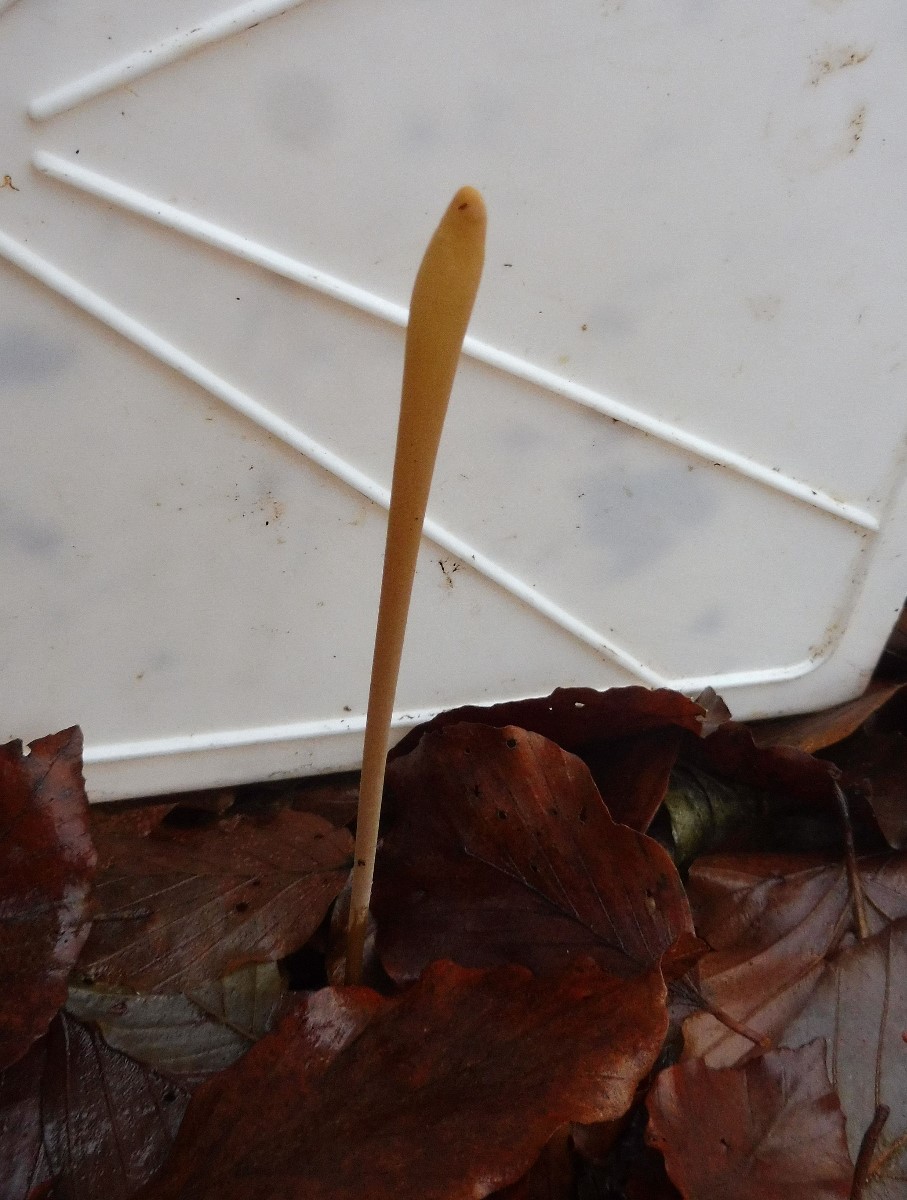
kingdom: Fungi
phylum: Basidiomycota
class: Agaricomycetes
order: Agaricales
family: Typhulaceae
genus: Typhula
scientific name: Typhula fistulosa
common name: pibet rørkølle
